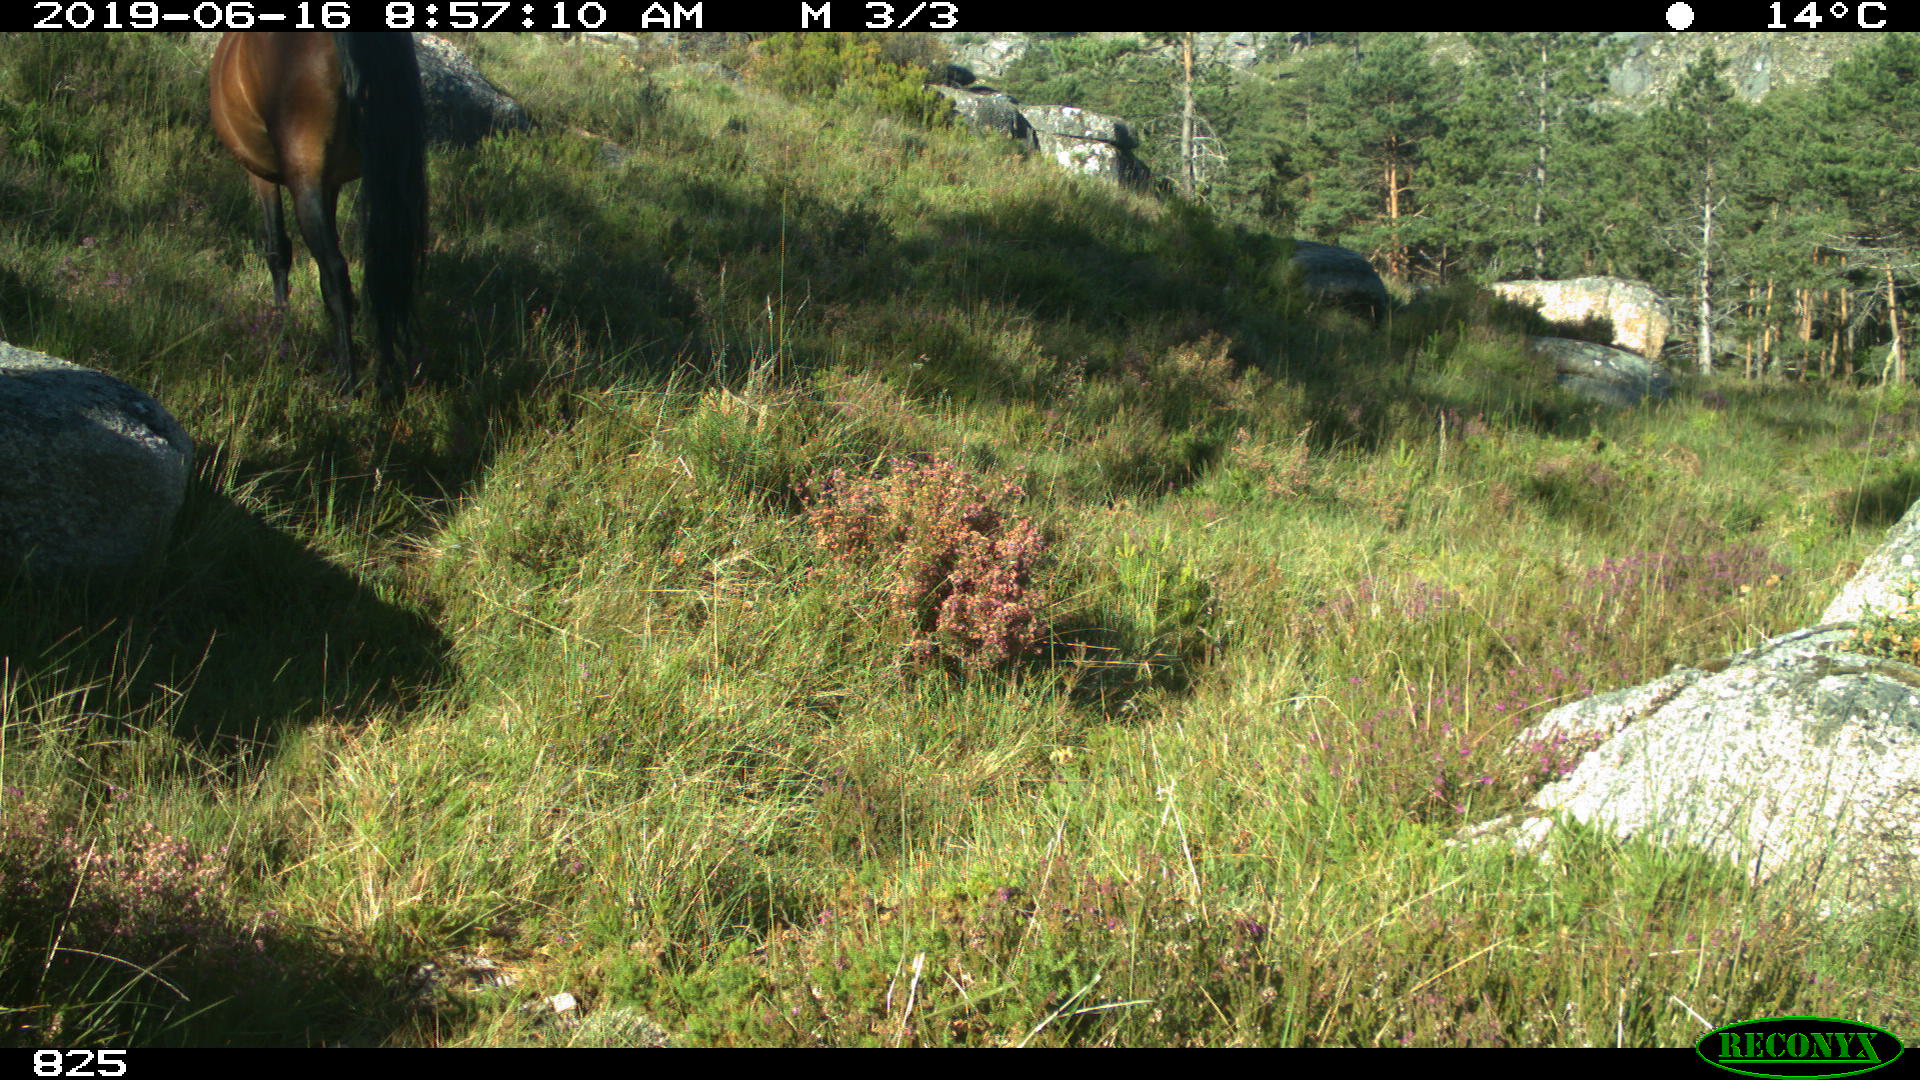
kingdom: Animalia
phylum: Chordata
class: Mammalia
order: Perissodactyla
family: Equidae
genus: Equus
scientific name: Equus caballus
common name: Horse
